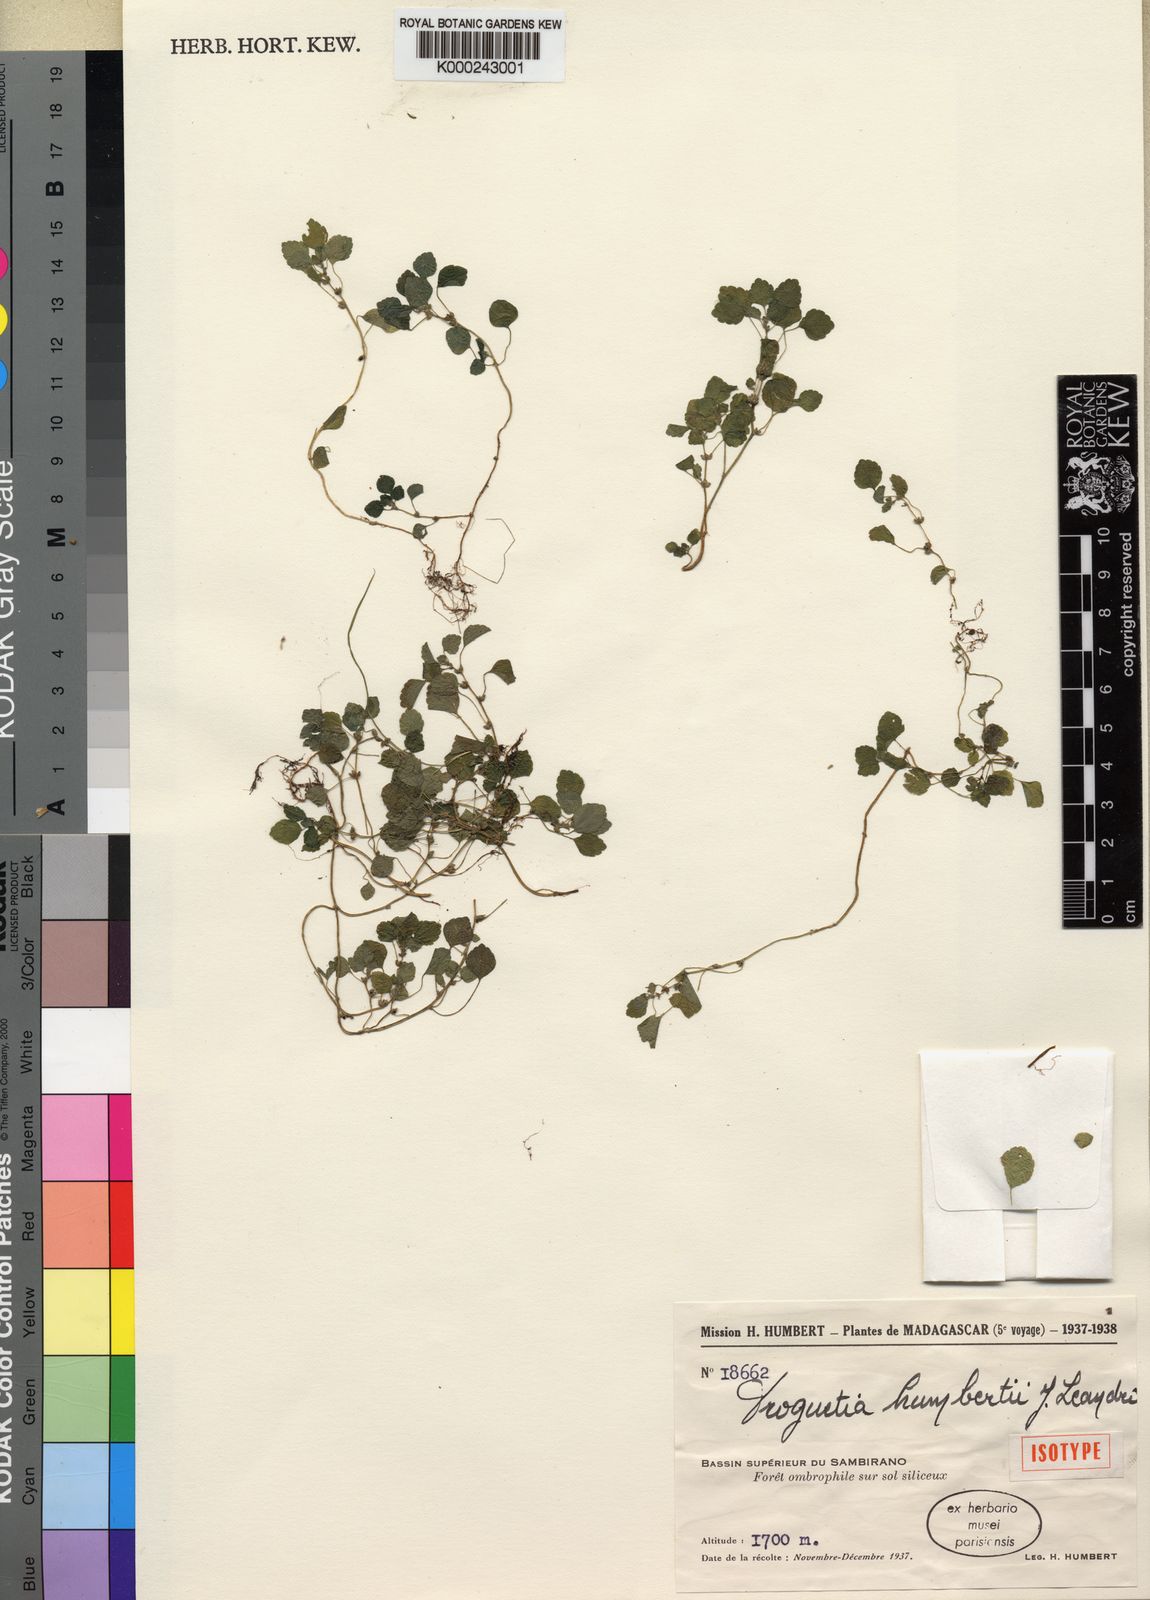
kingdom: Plantae
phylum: Tracheophyta
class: Magnoliopsida
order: Rosales
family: Urticaceae
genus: Droguetia
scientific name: Droguetia humbertii
